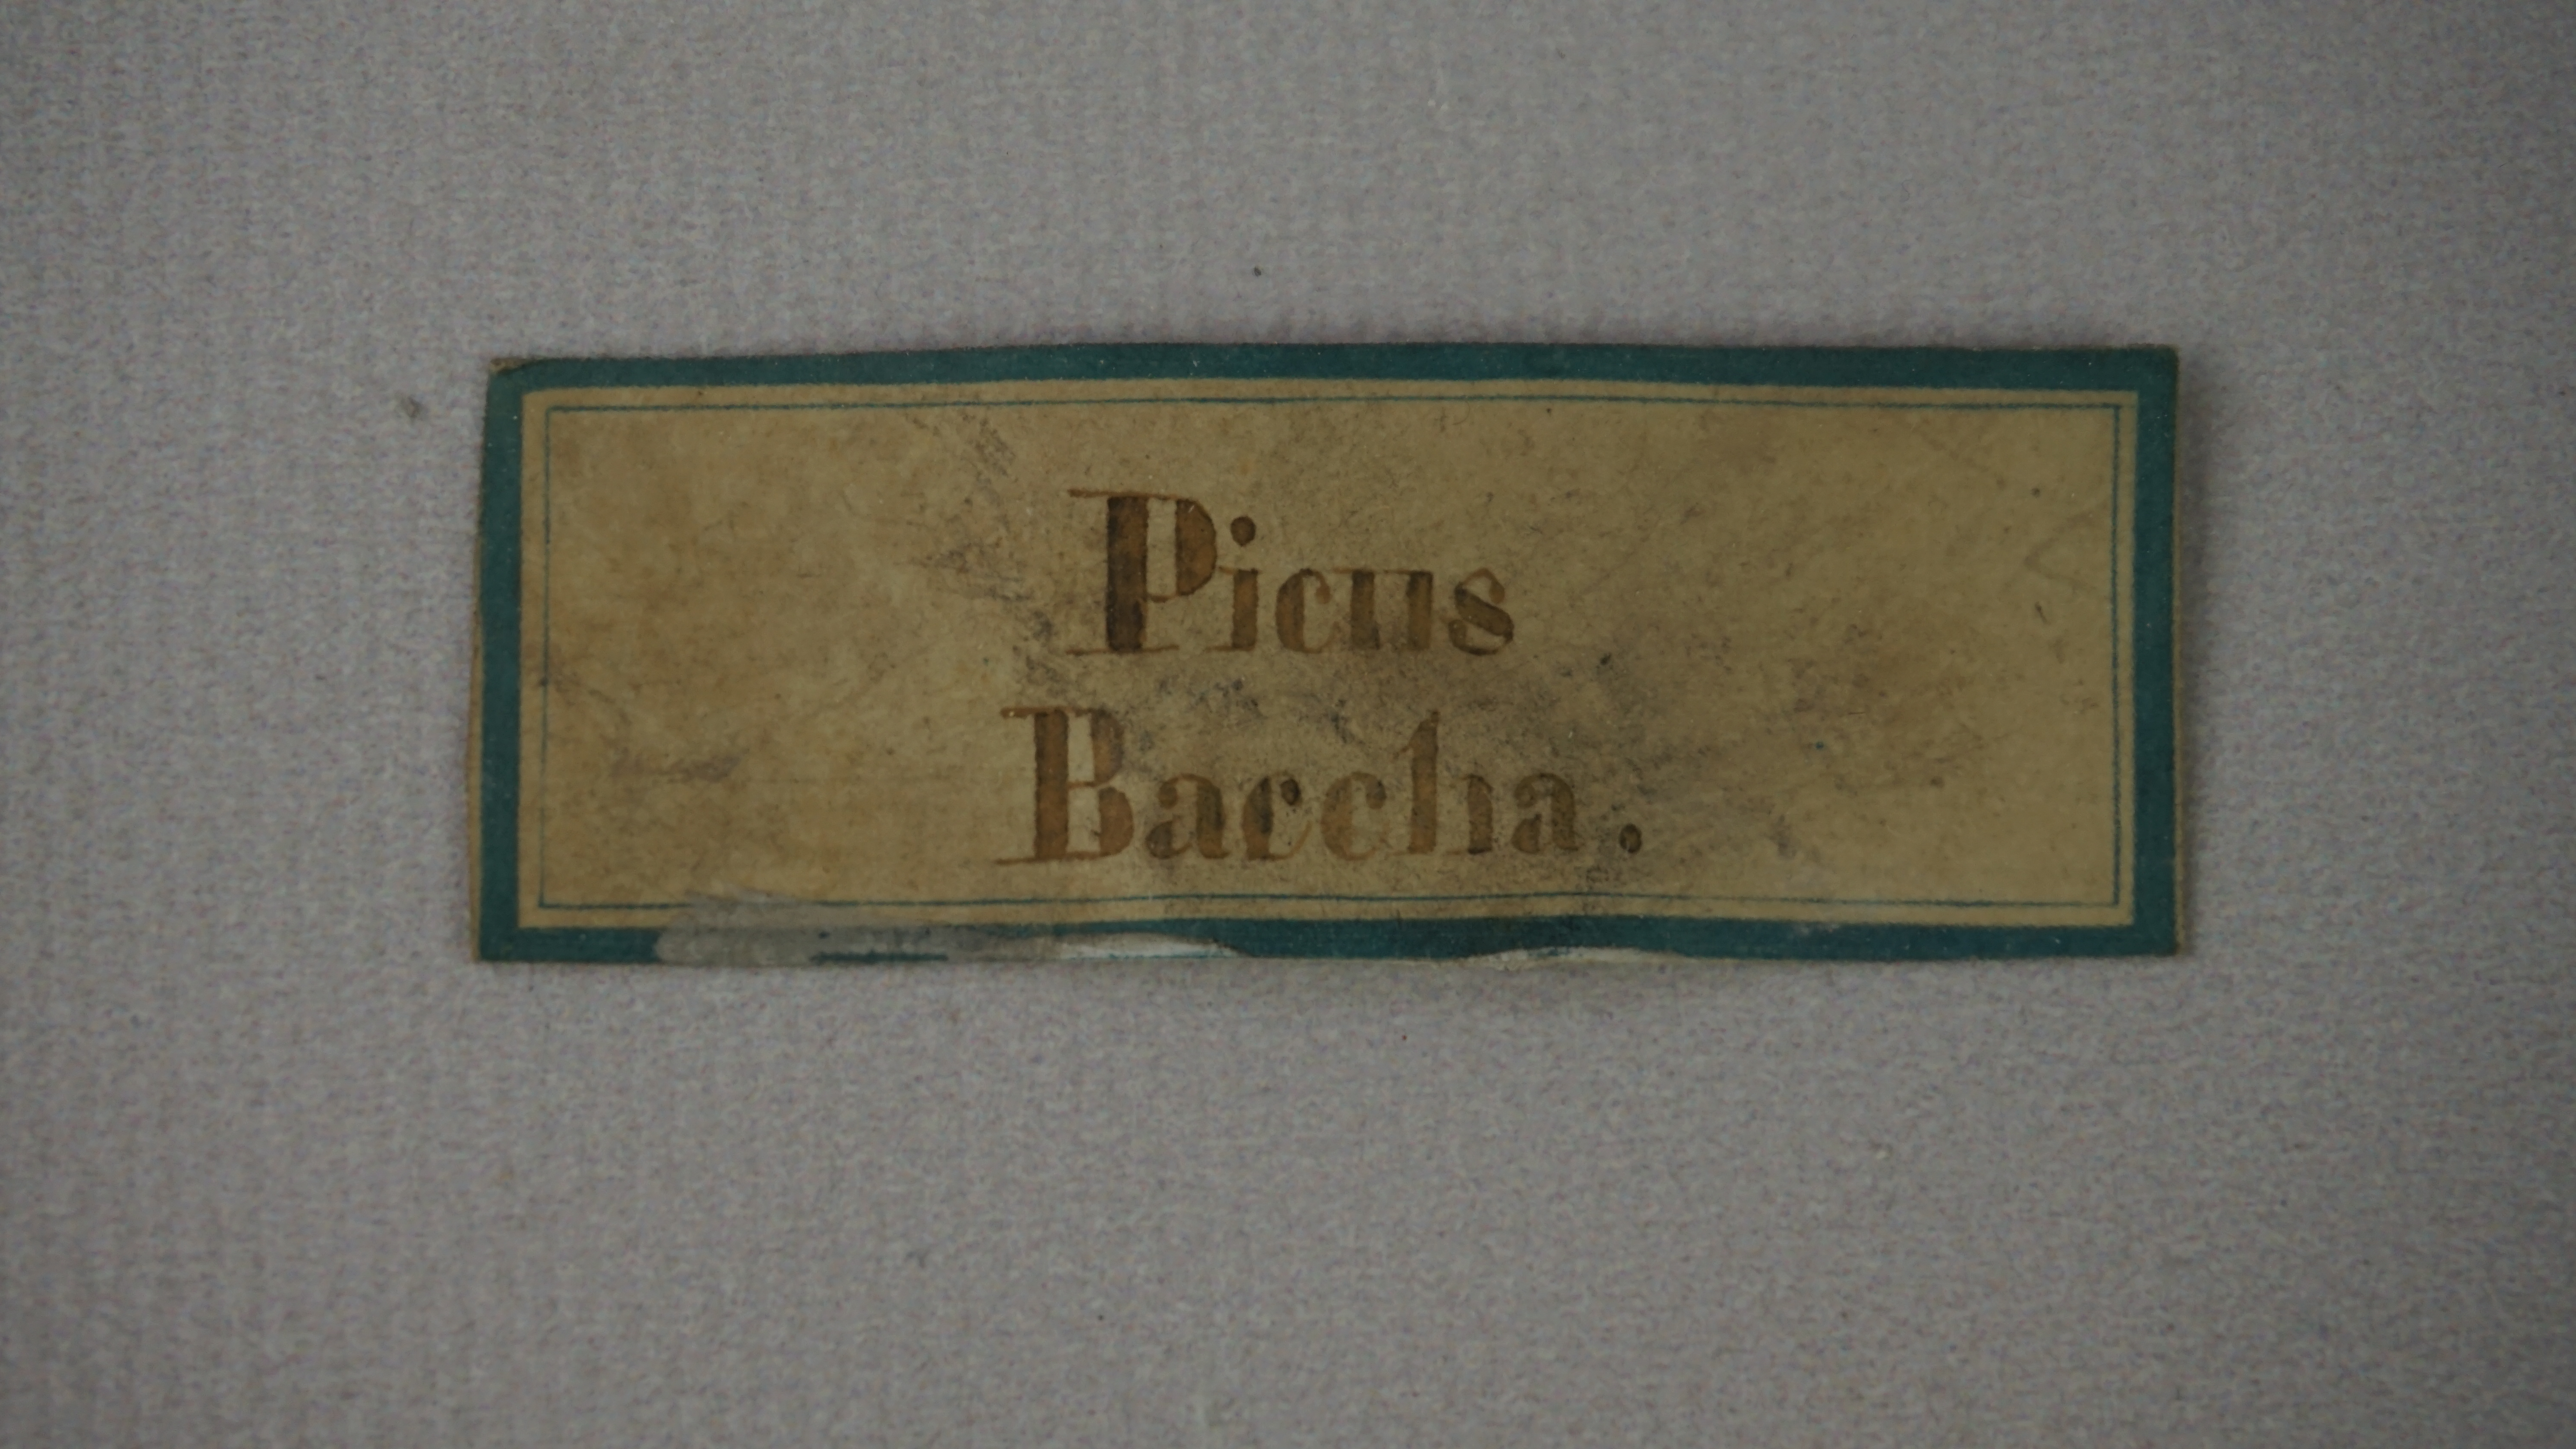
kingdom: Animalia
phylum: Chordata
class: Aves
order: Piciformes
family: Picidae
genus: Chrysocolaptes
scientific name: Chrysocolaptes guttacristatus
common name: Greater flameback
